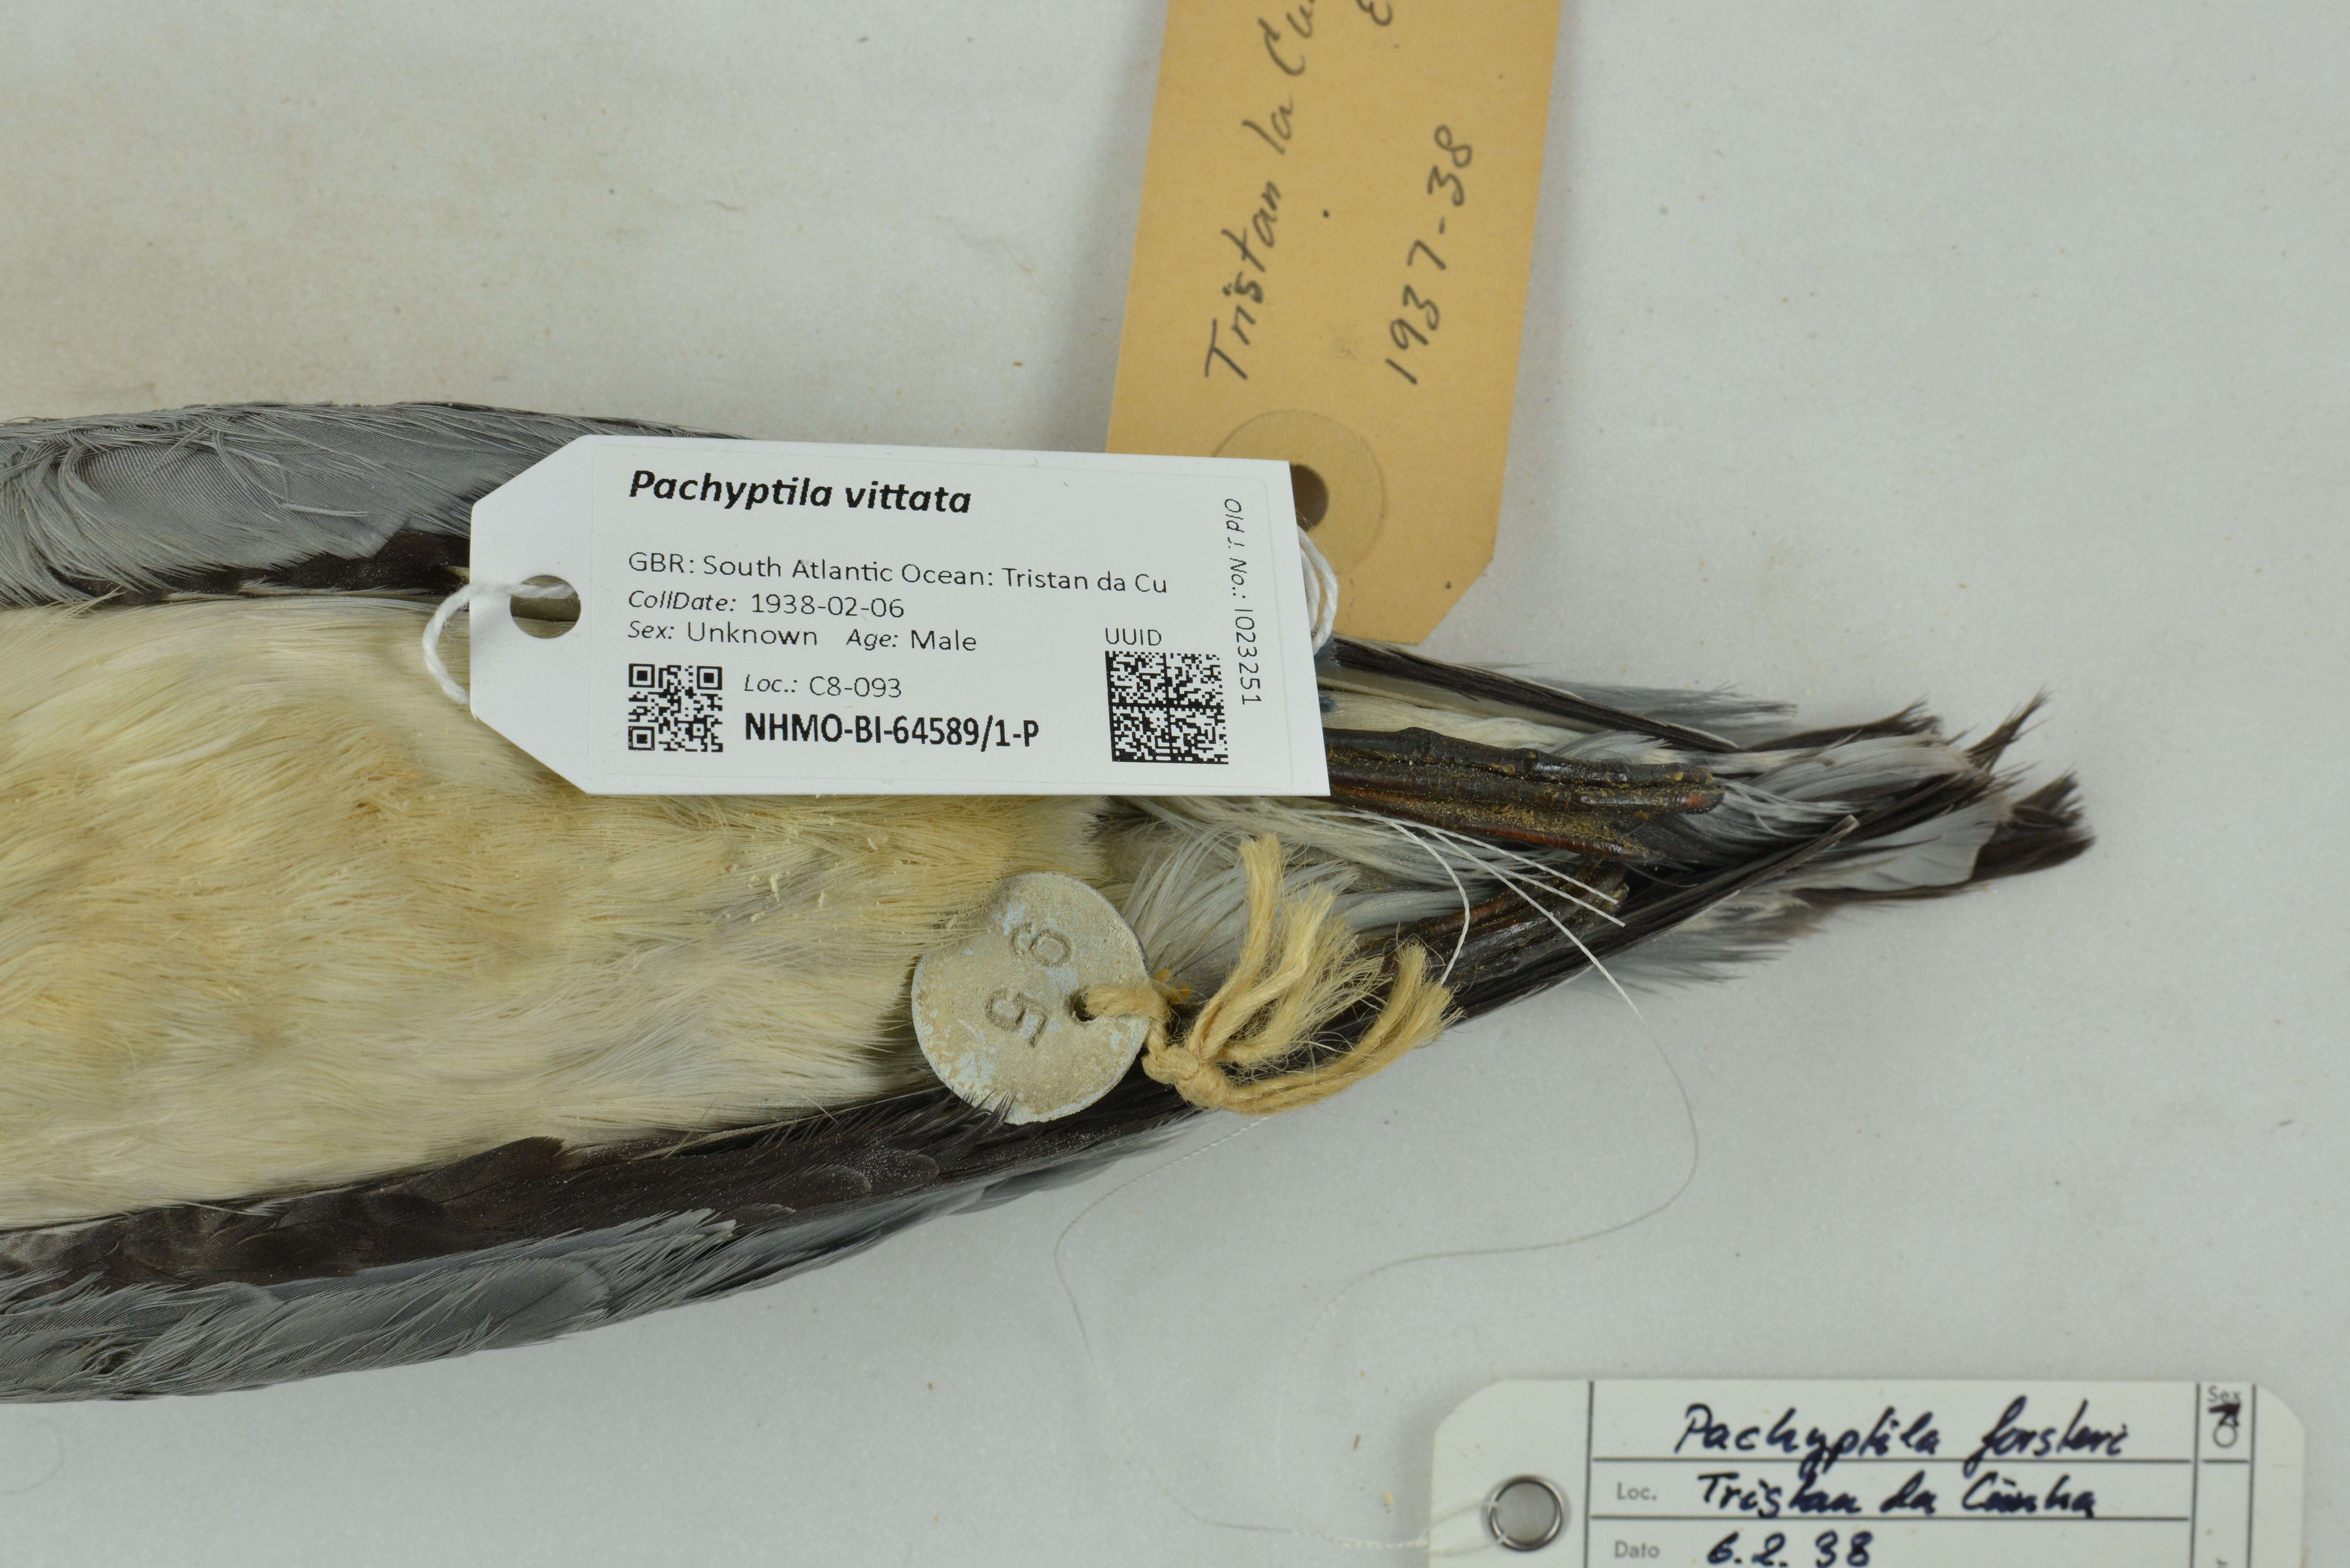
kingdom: Animalia
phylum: Chordata
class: Aves
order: Procellariiformes
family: Procellariidae
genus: Pachyptila
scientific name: Pachyptila vittata
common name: Broad-billed prion
